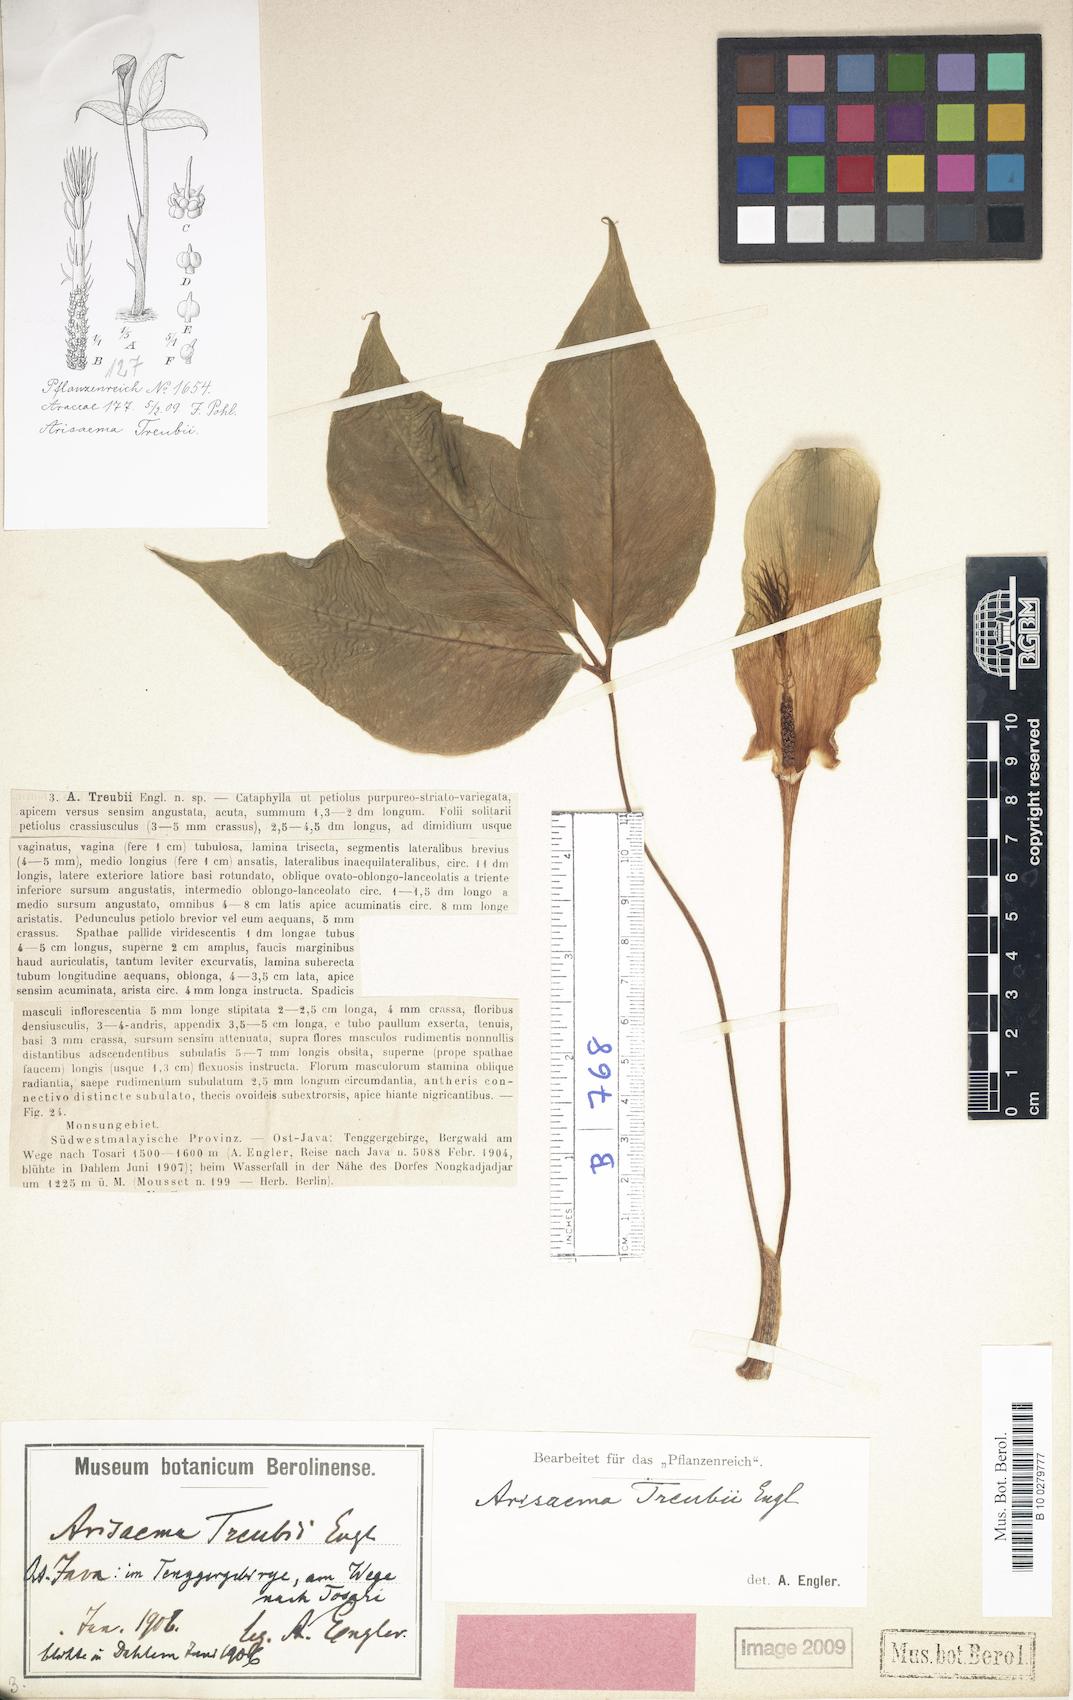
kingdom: Plantae
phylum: Tracheophyta
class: Liliopsida
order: Alismatales
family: Araceae
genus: Arisaema
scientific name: Arisaema barbatum
